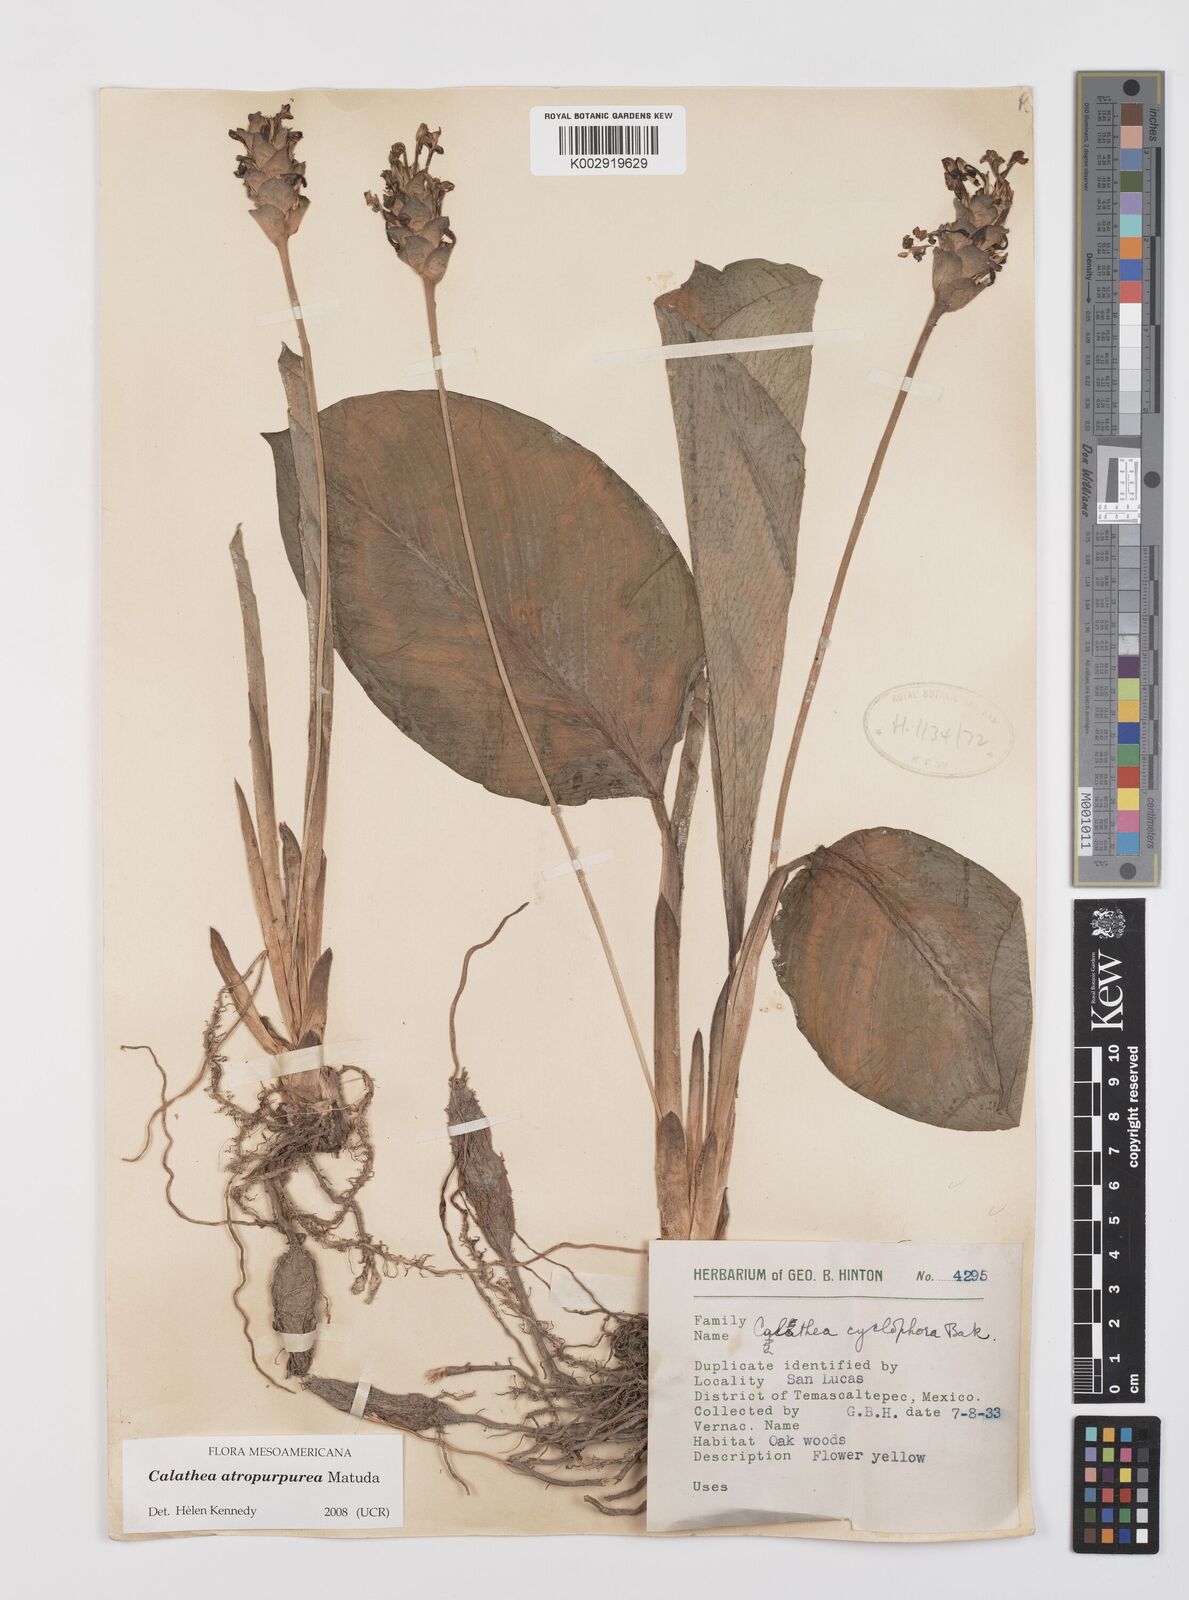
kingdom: Plantae
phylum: Tracheophyta
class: Liliopsida
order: Zingiberales
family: Marantaceae
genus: Goeppertia
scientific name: Goeppertia atropurpurea
